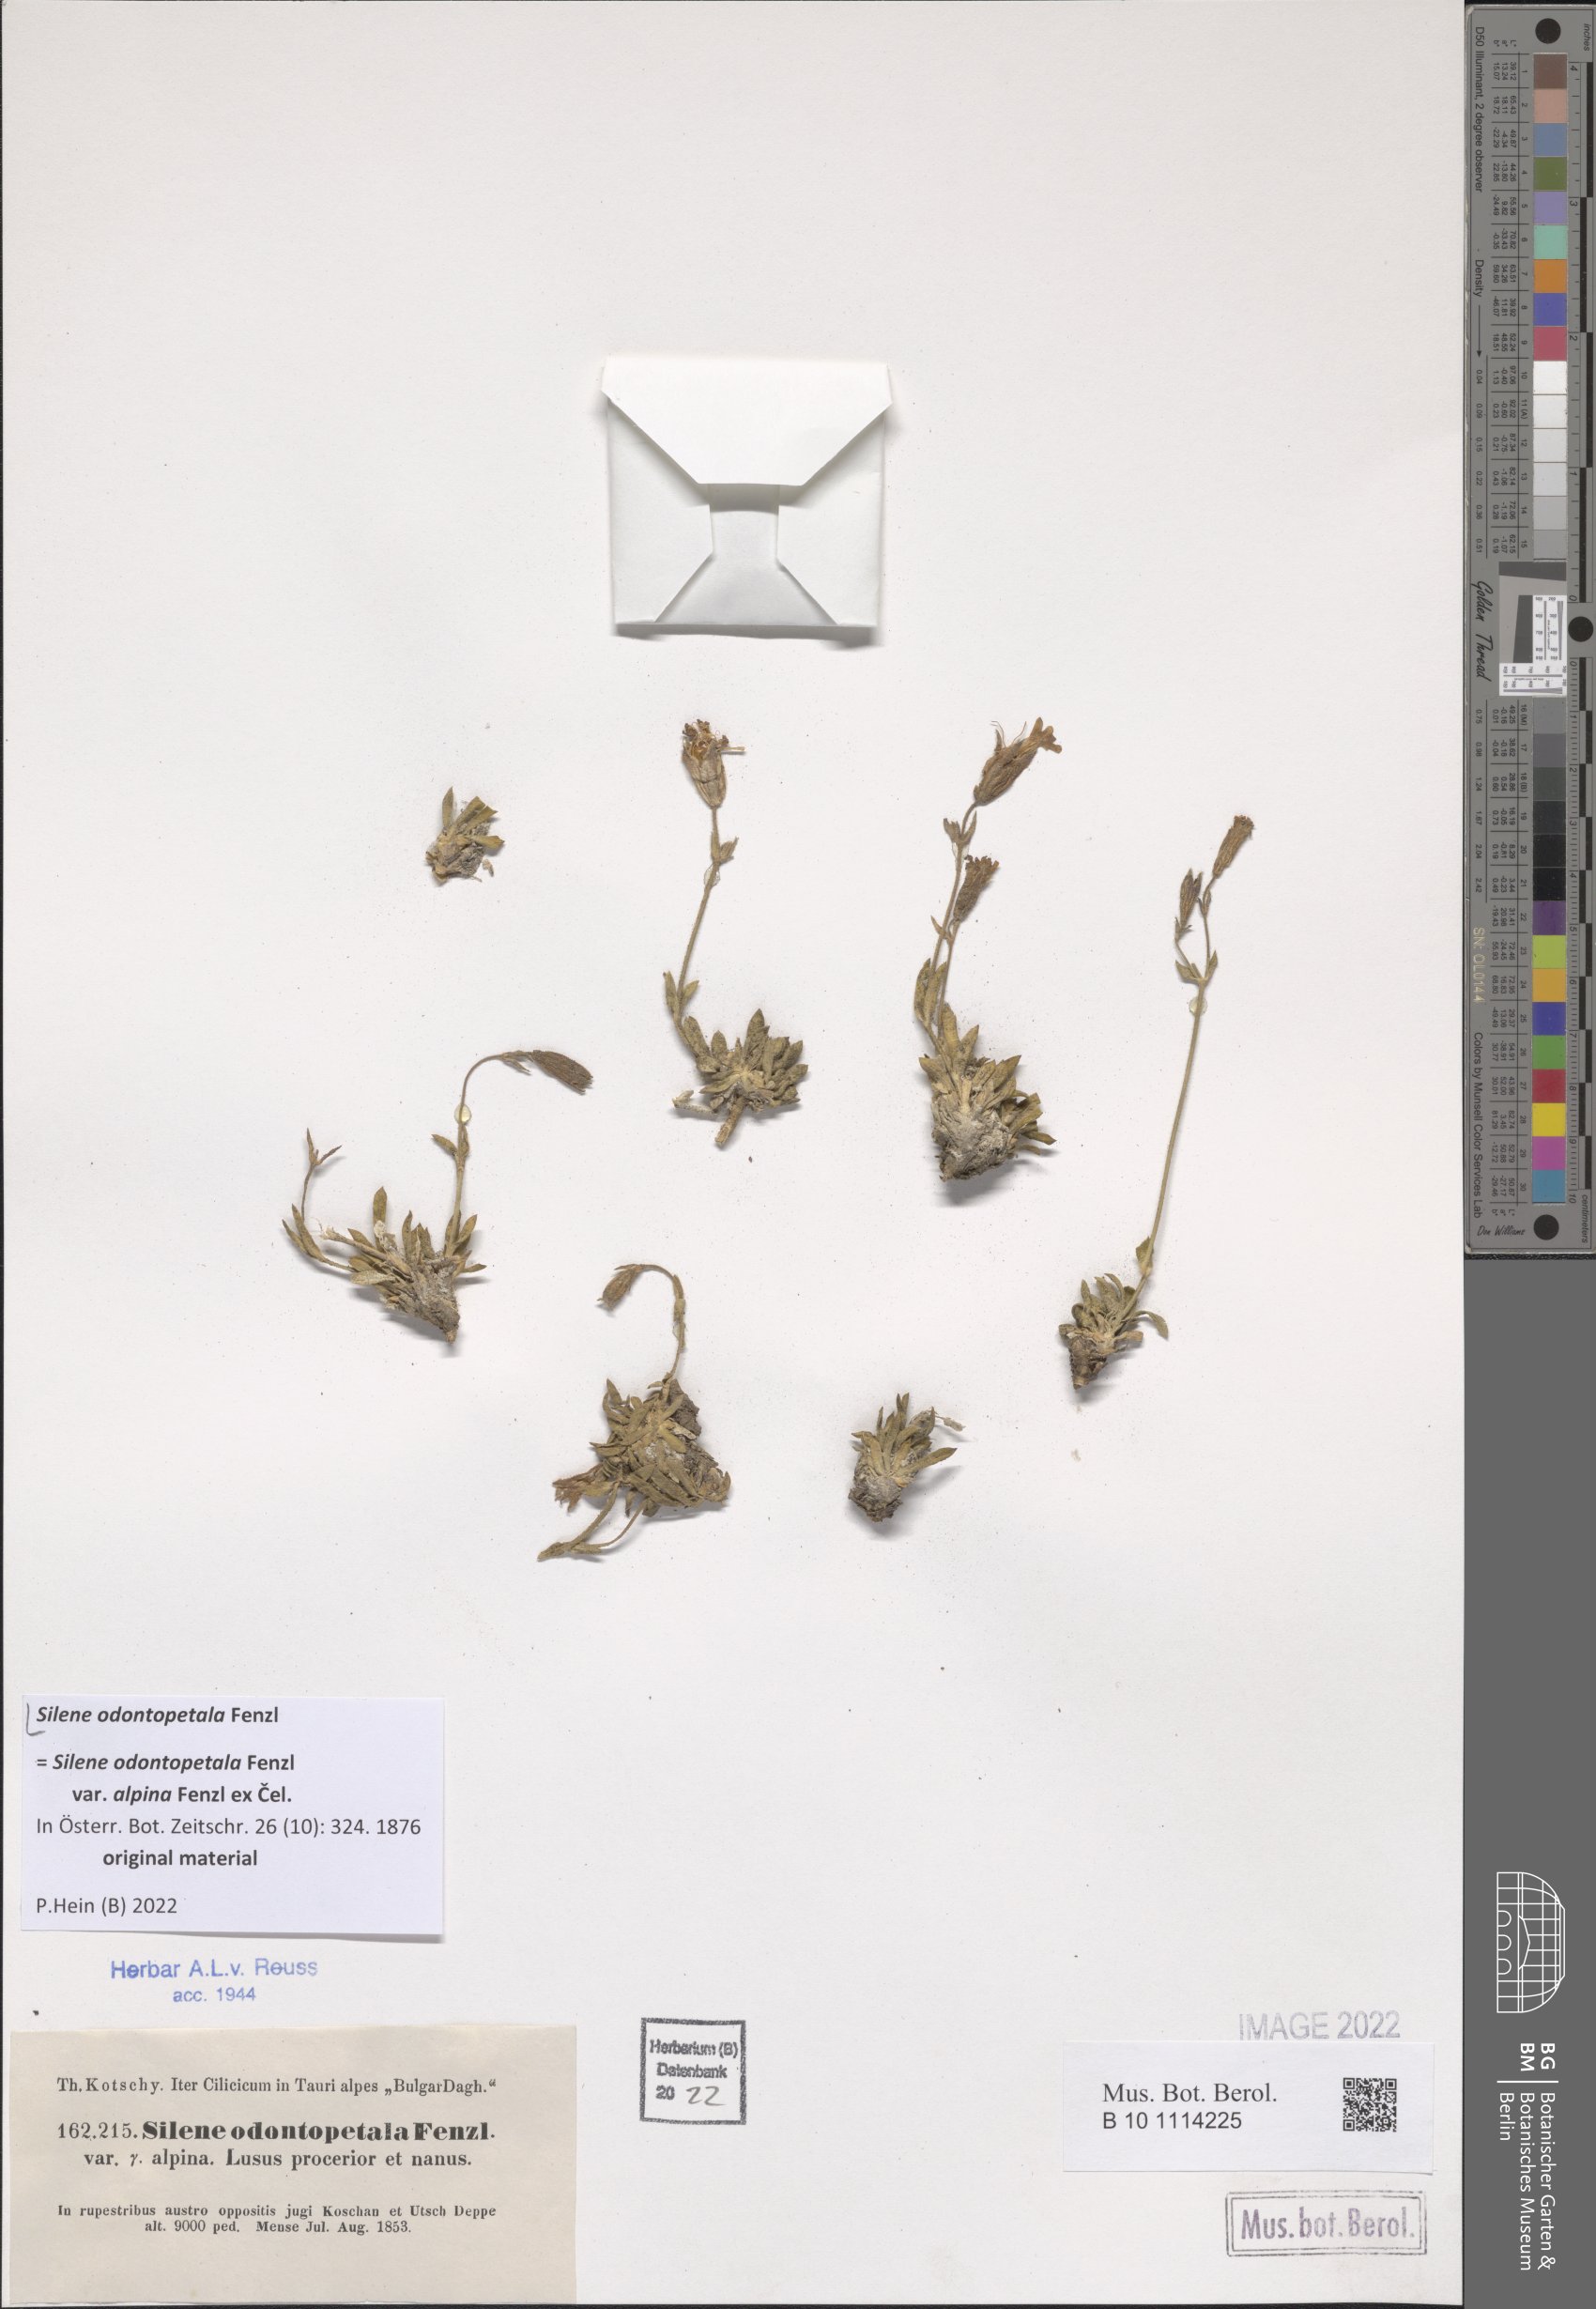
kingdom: Plantae
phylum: Tracheophyta
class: Magnoliopsida
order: Caryophyllales
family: Caryophyllaceae
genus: Silene
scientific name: Silene odontopetala
